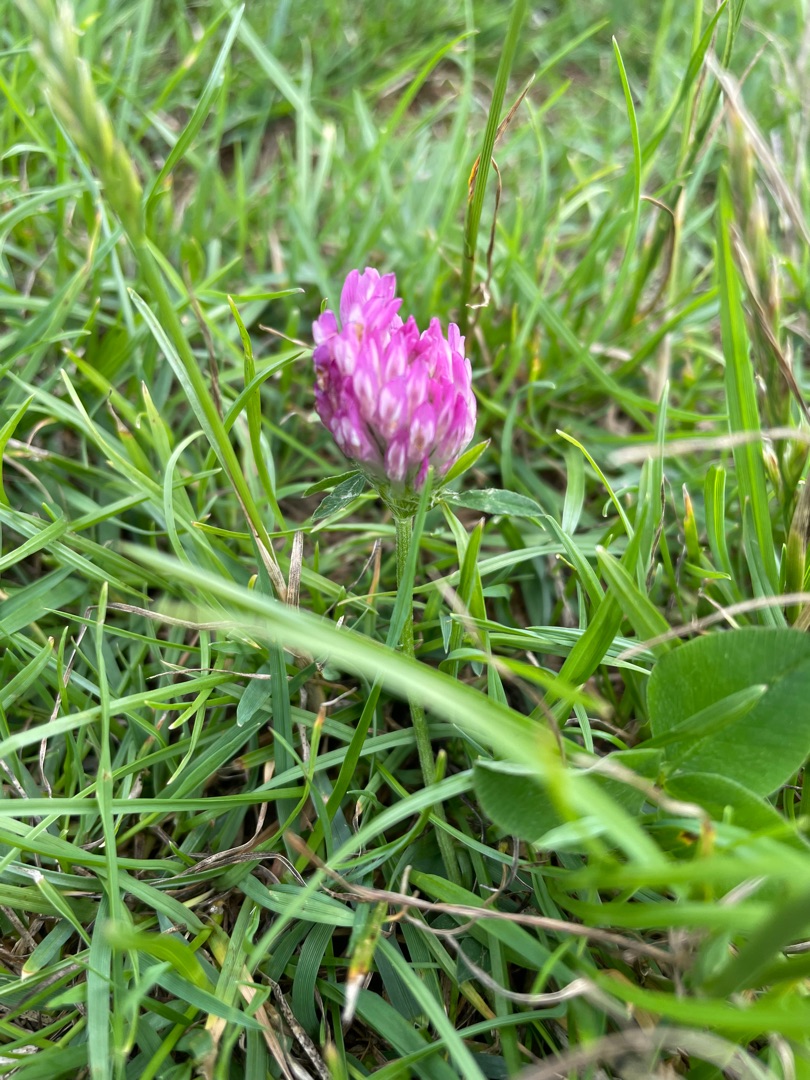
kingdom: Plantae
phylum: Tracheophyta
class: Magnoliopsida
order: Fabales
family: Fabaceae
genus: Trifolium
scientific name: Trifolium pratense
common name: Rød-kløver
